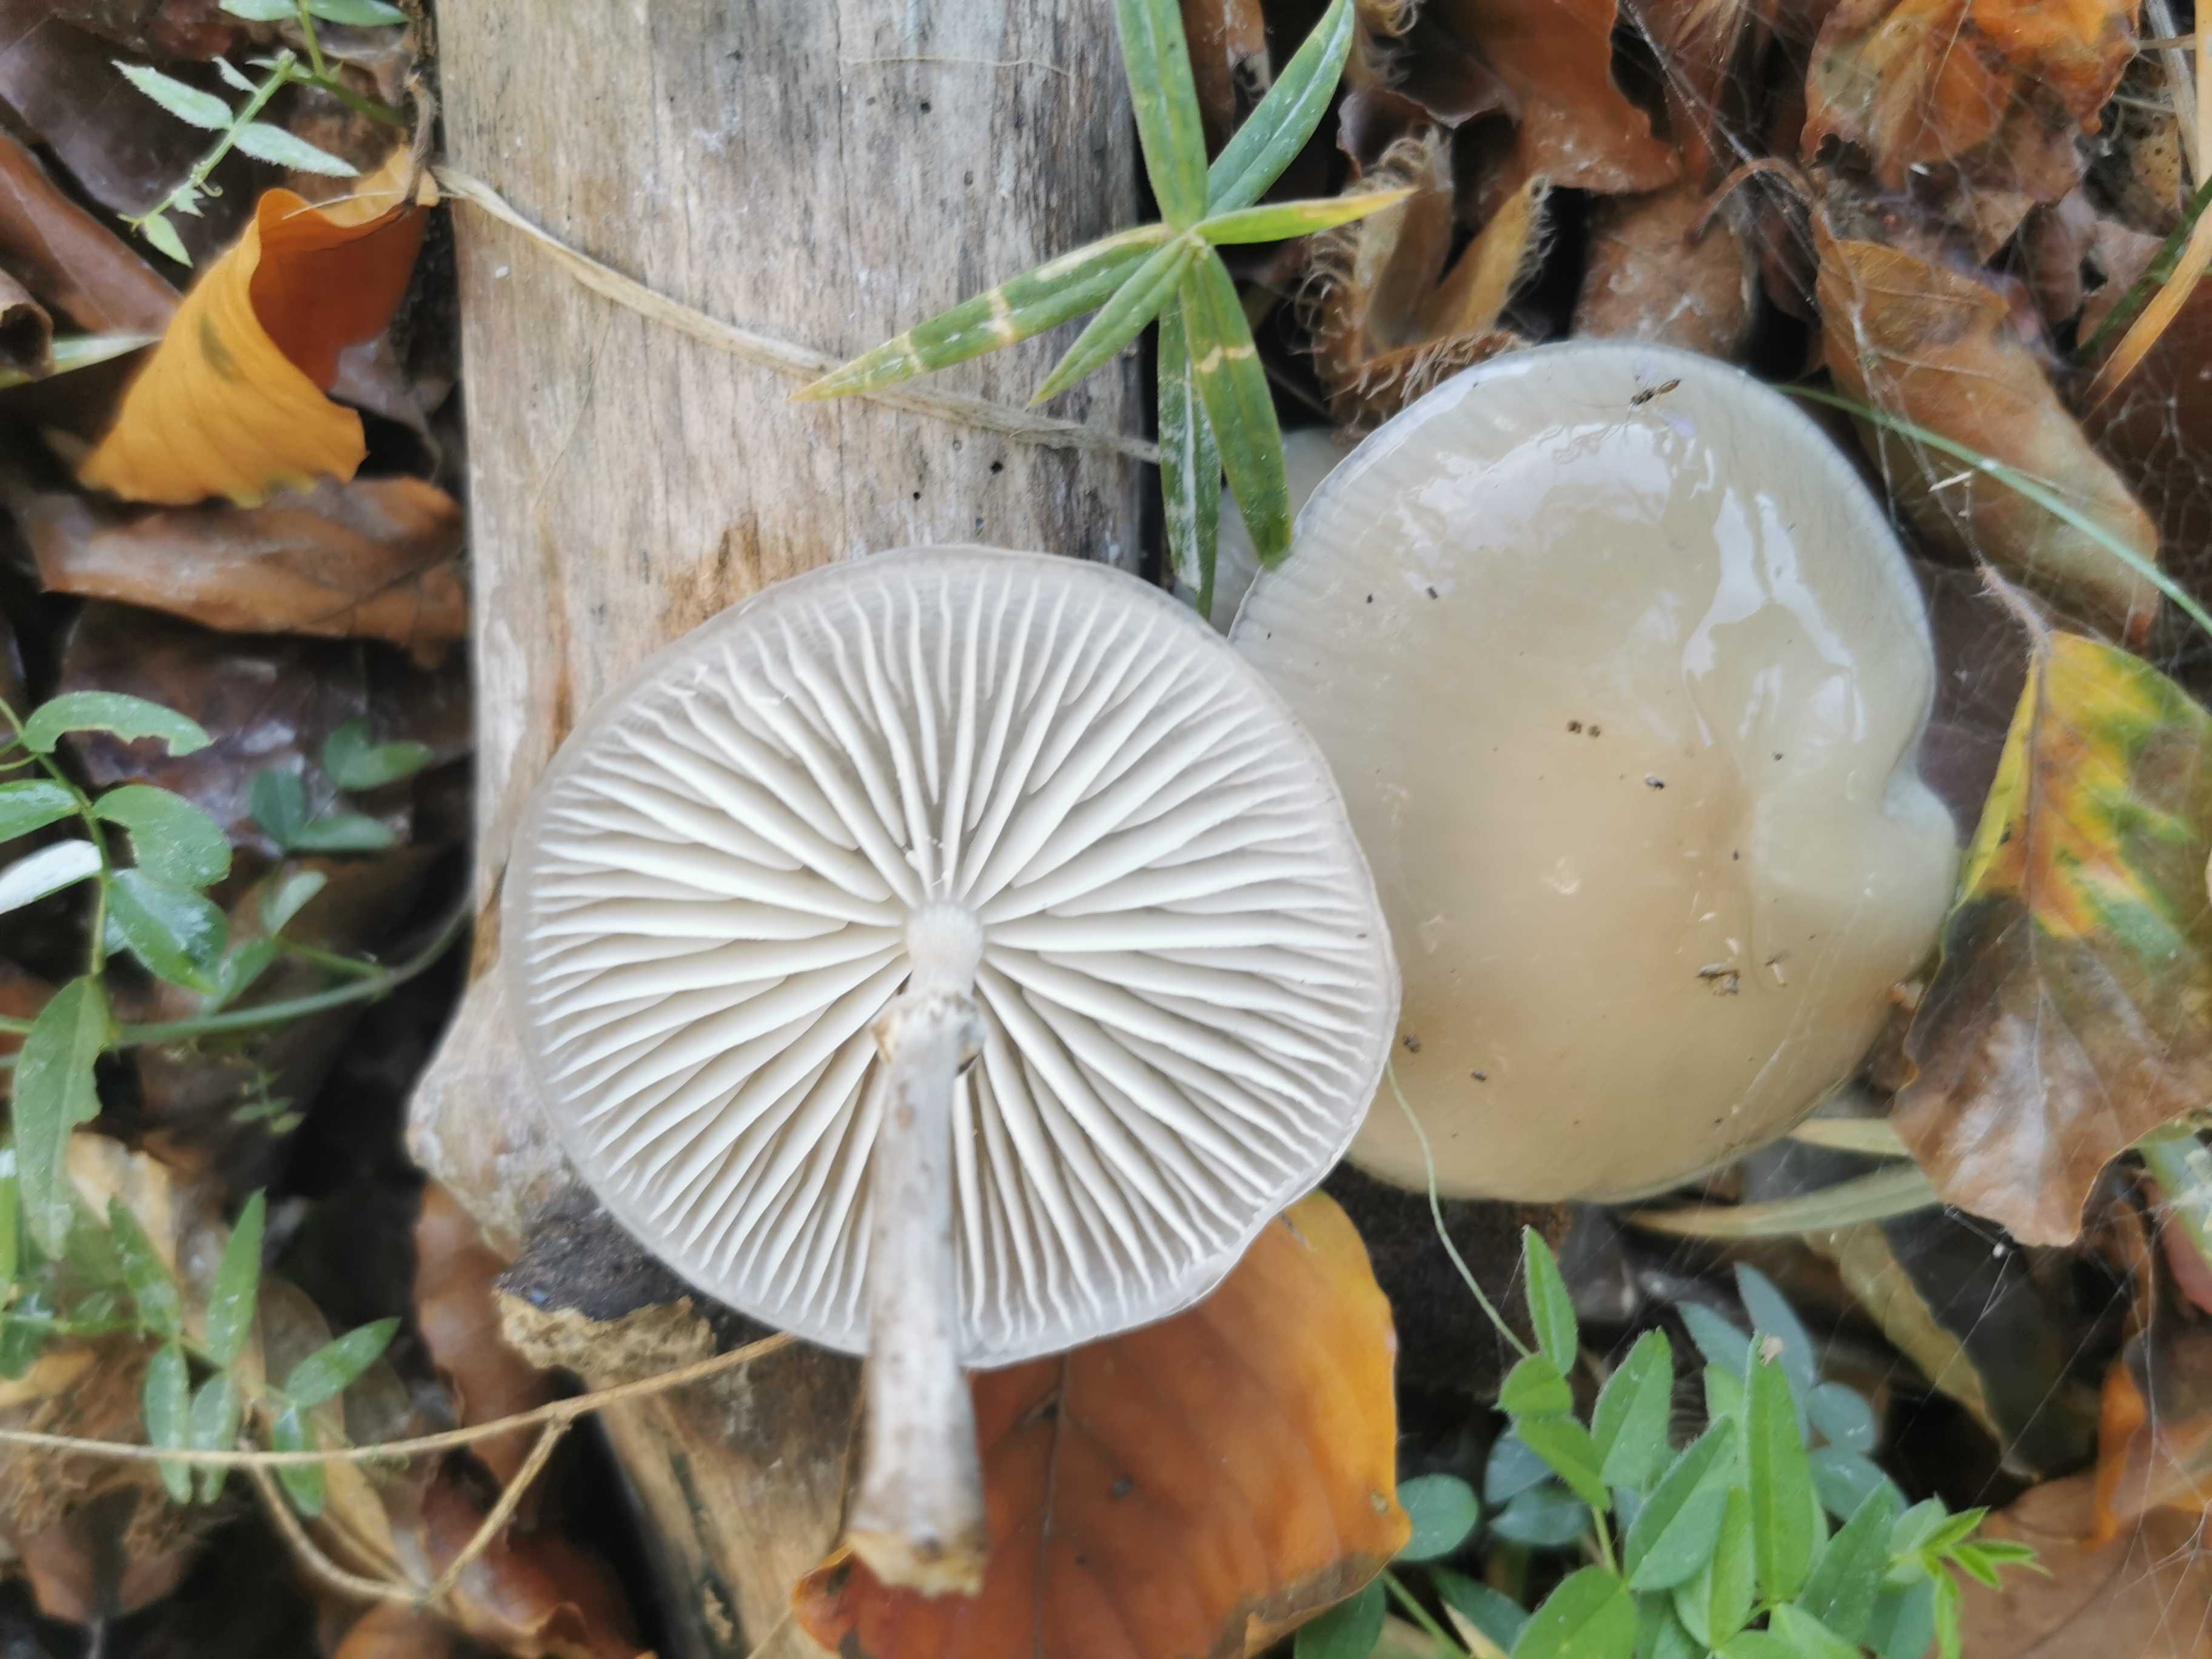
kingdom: Fungi
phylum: Basidiomycota
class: Agaricomycetes
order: Agaricales
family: Physalacriaceae
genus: Mucidula
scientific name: Mucidula mucida
